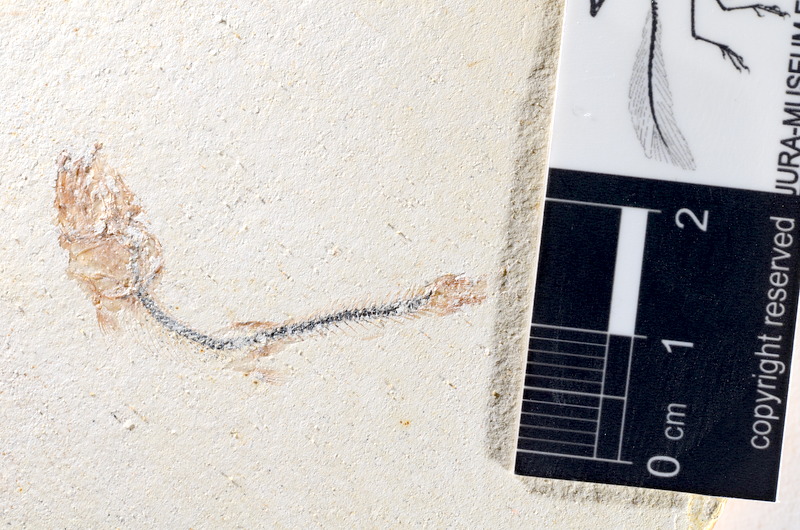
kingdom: Animalia
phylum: Chordata
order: Salmoniformes
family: Orthogonikleithridae
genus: Orthogonikleithrus
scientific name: Orthogonikleithrus hoelli
